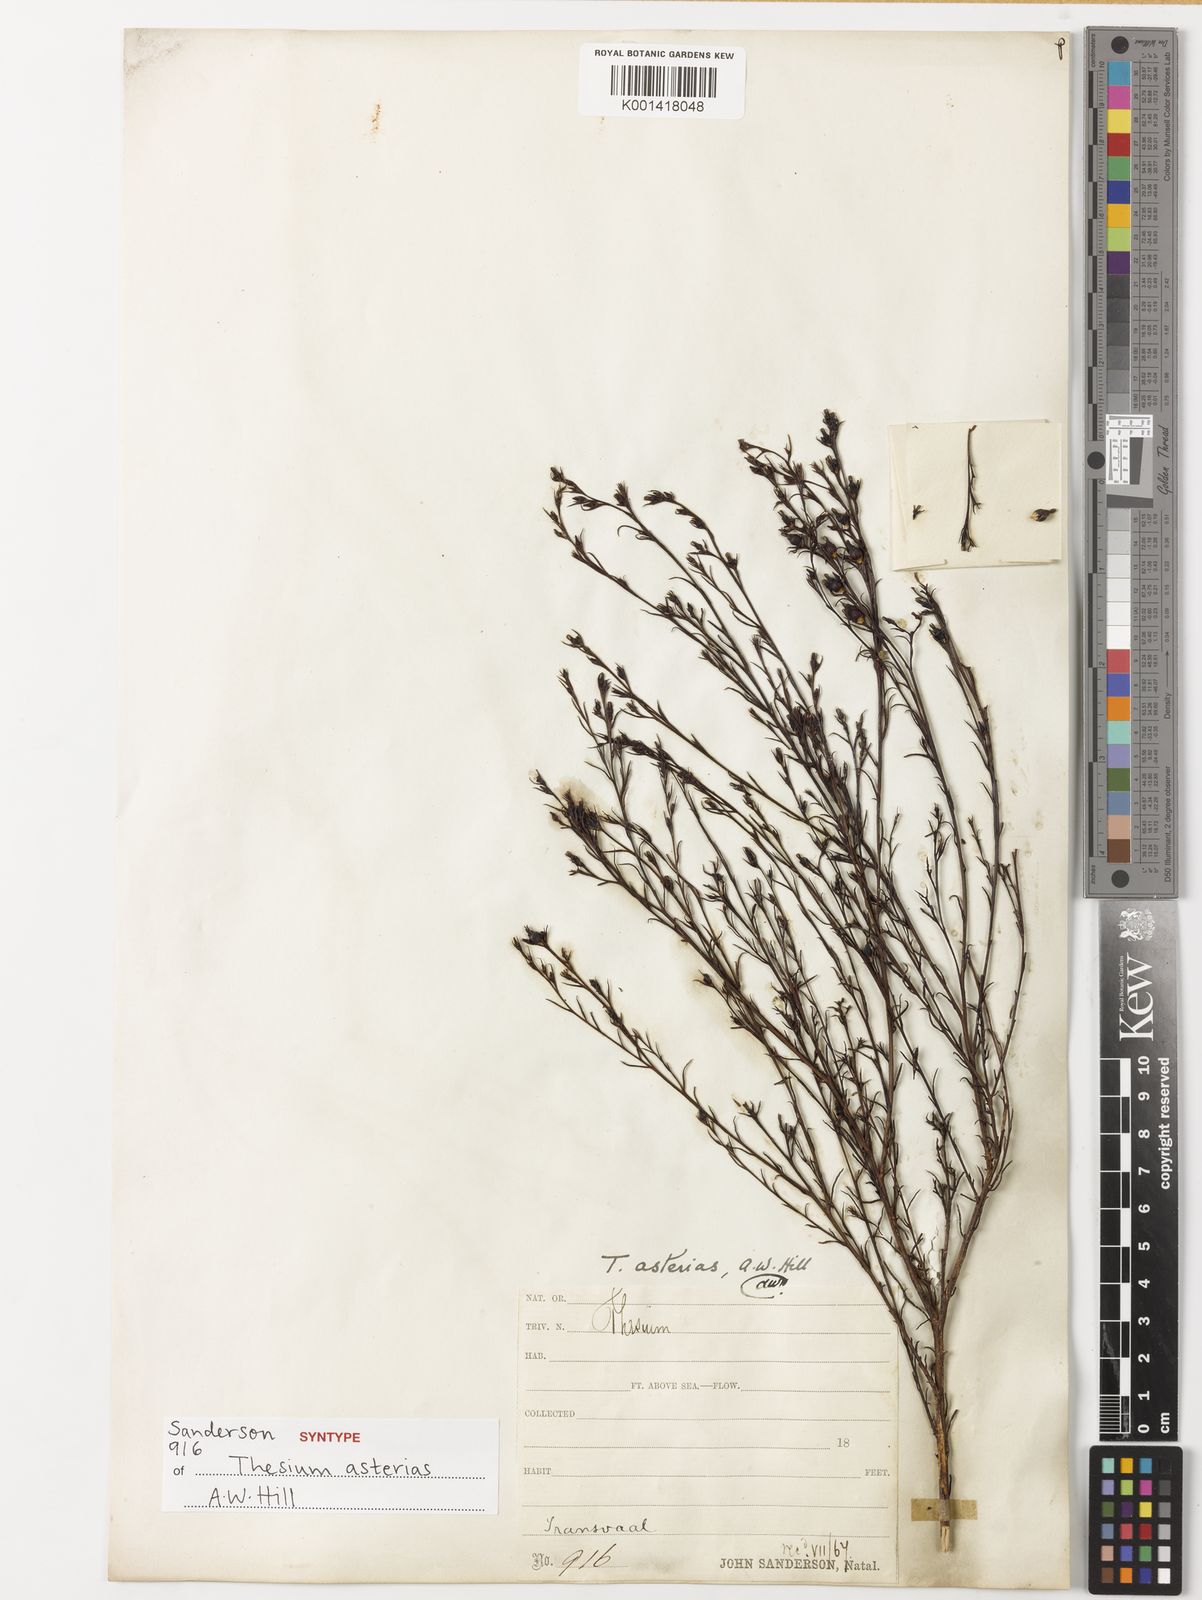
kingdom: Plantae
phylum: Tracheophyta
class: Magnoliopsida
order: Santalales
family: Thesiaceae
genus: Thesium
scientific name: Thesium asterias
